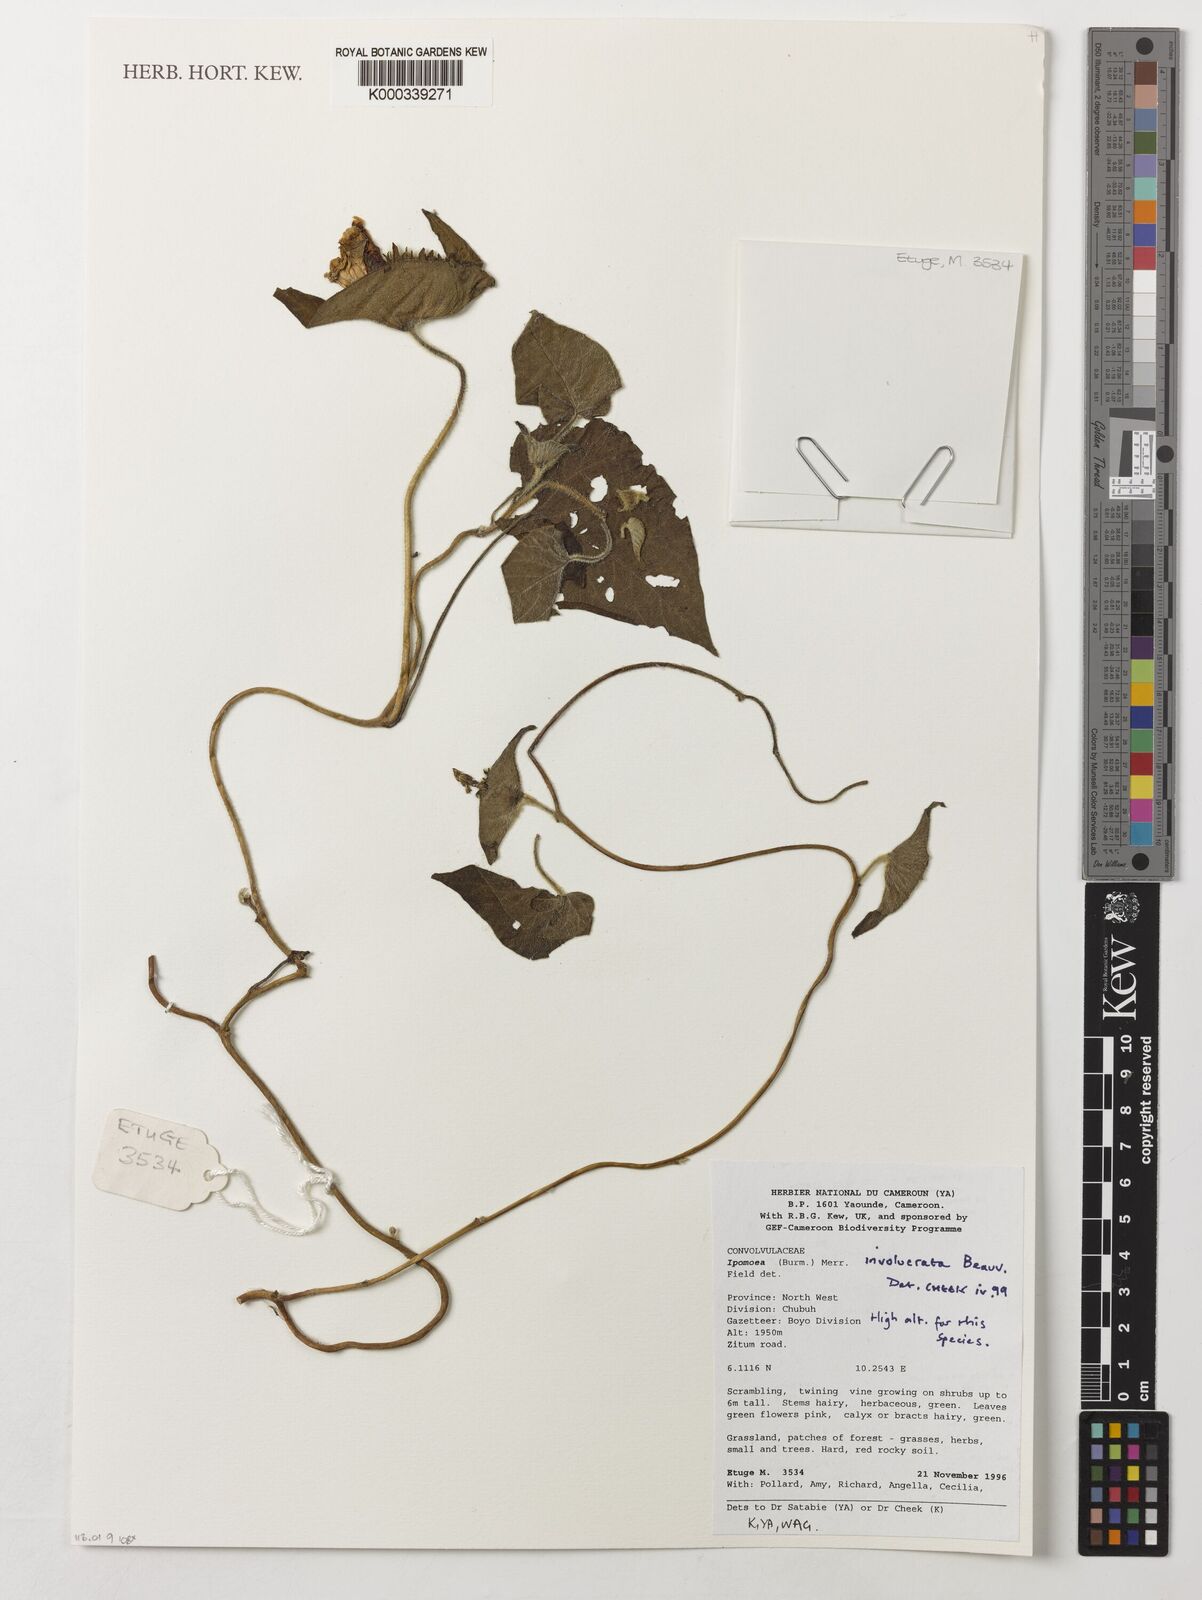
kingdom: Plantae
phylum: Tracheophyta
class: Magnoliopsida
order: Solanales
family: Convolvulaceae
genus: Ipomoea
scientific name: Ipomoea involucrata
